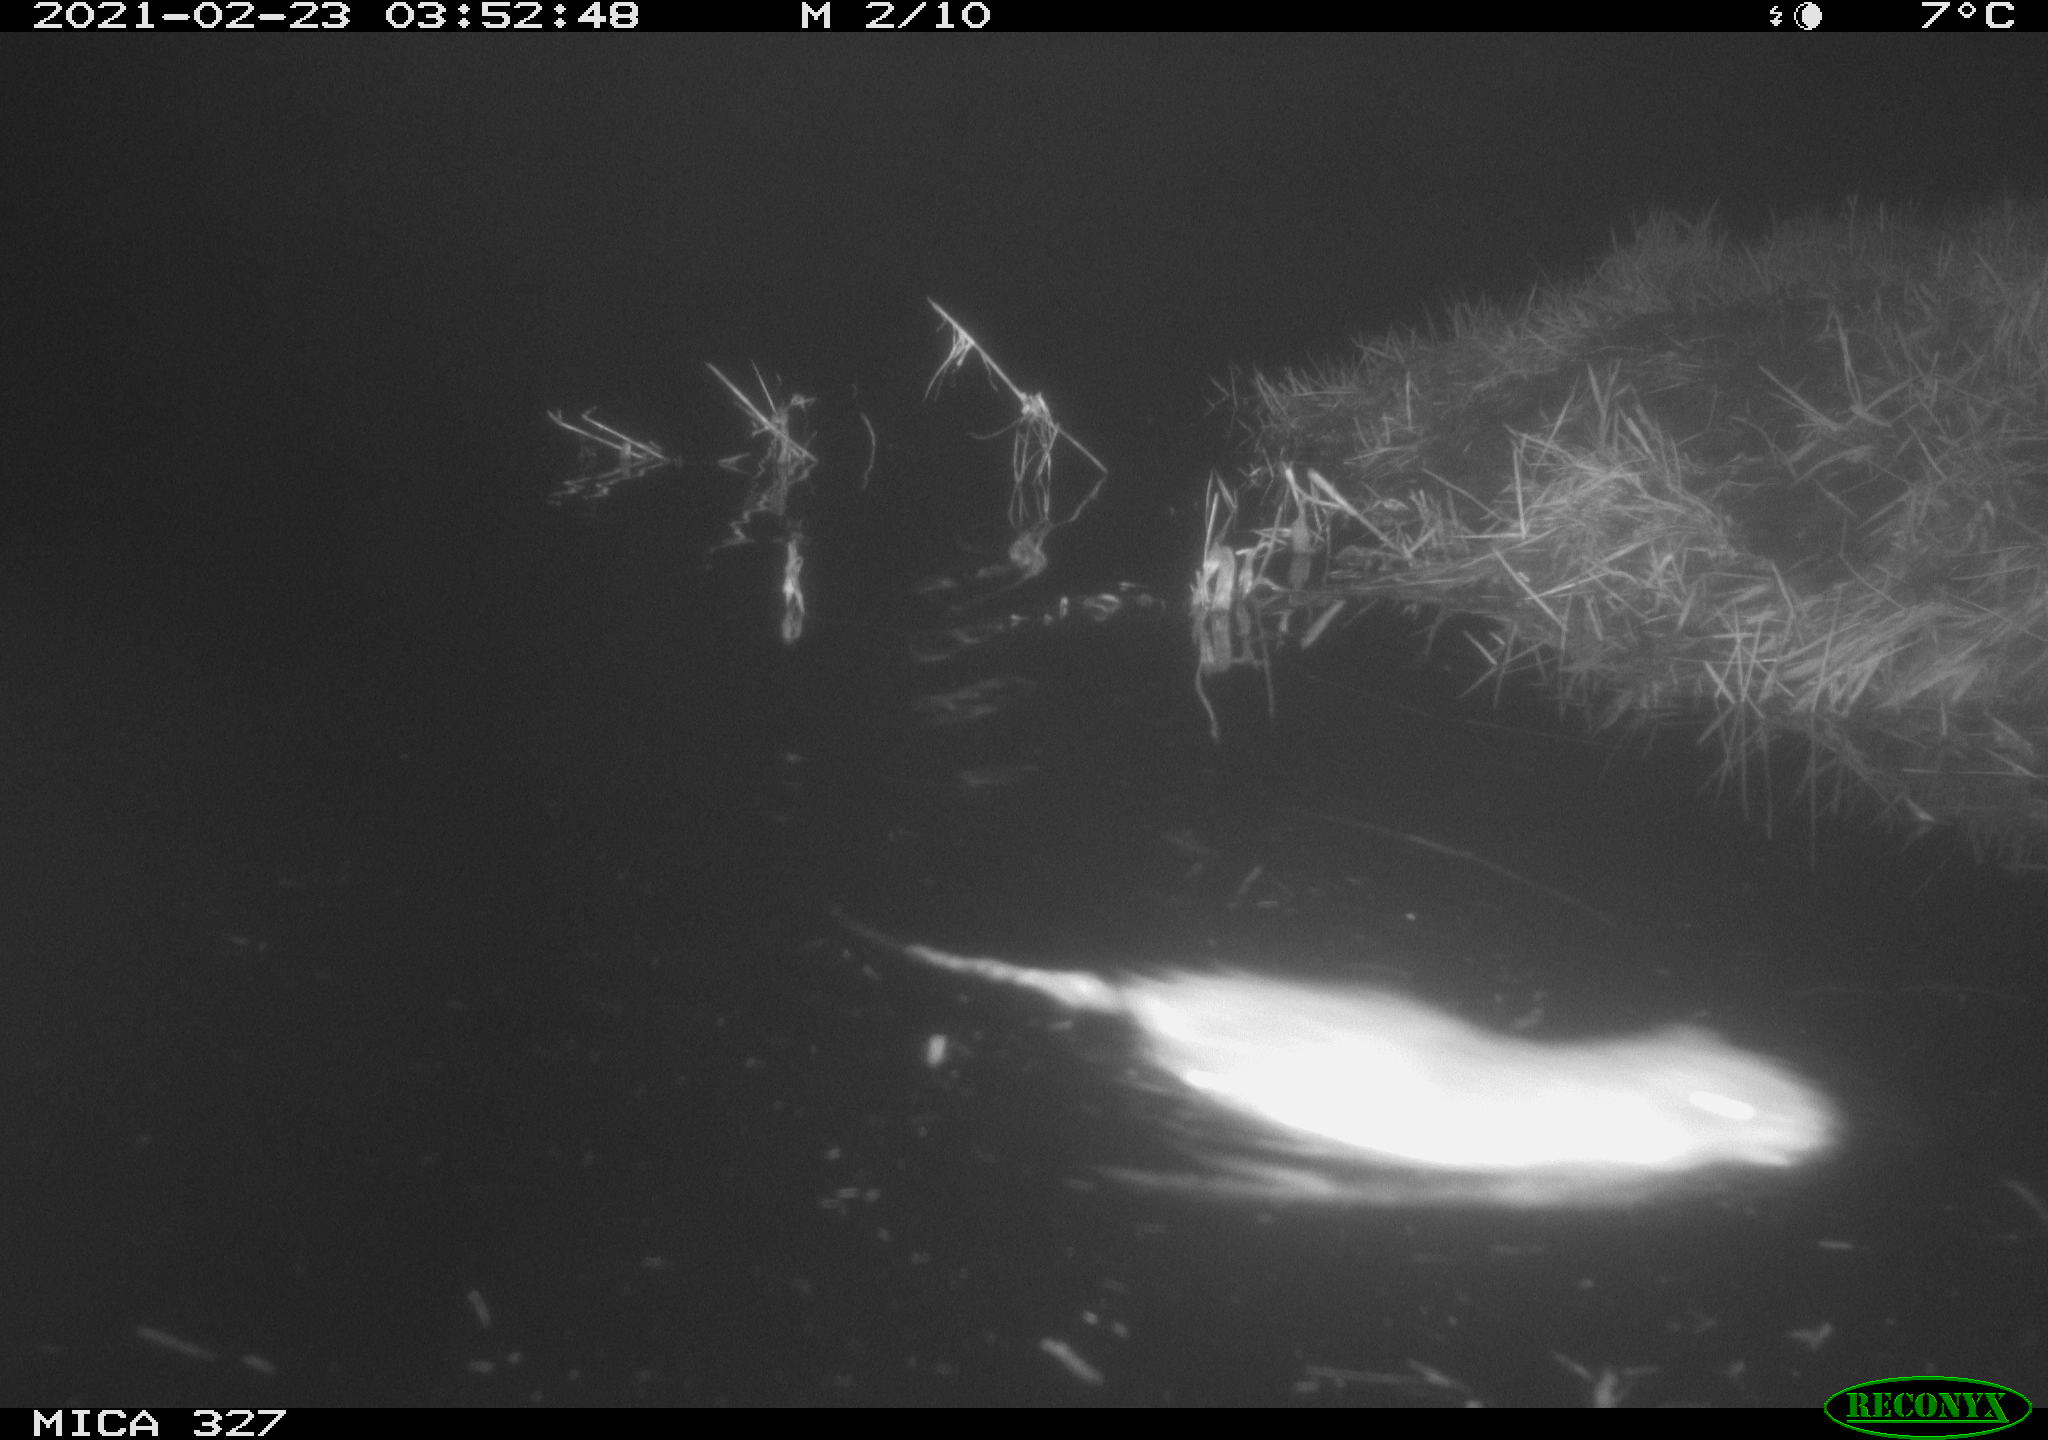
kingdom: Animalia
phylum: Chordata
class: Mammalia
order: Rodentia
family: Cricetidae
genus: Ondatra
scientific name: Ondatra zibethicus
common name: Muskrat
